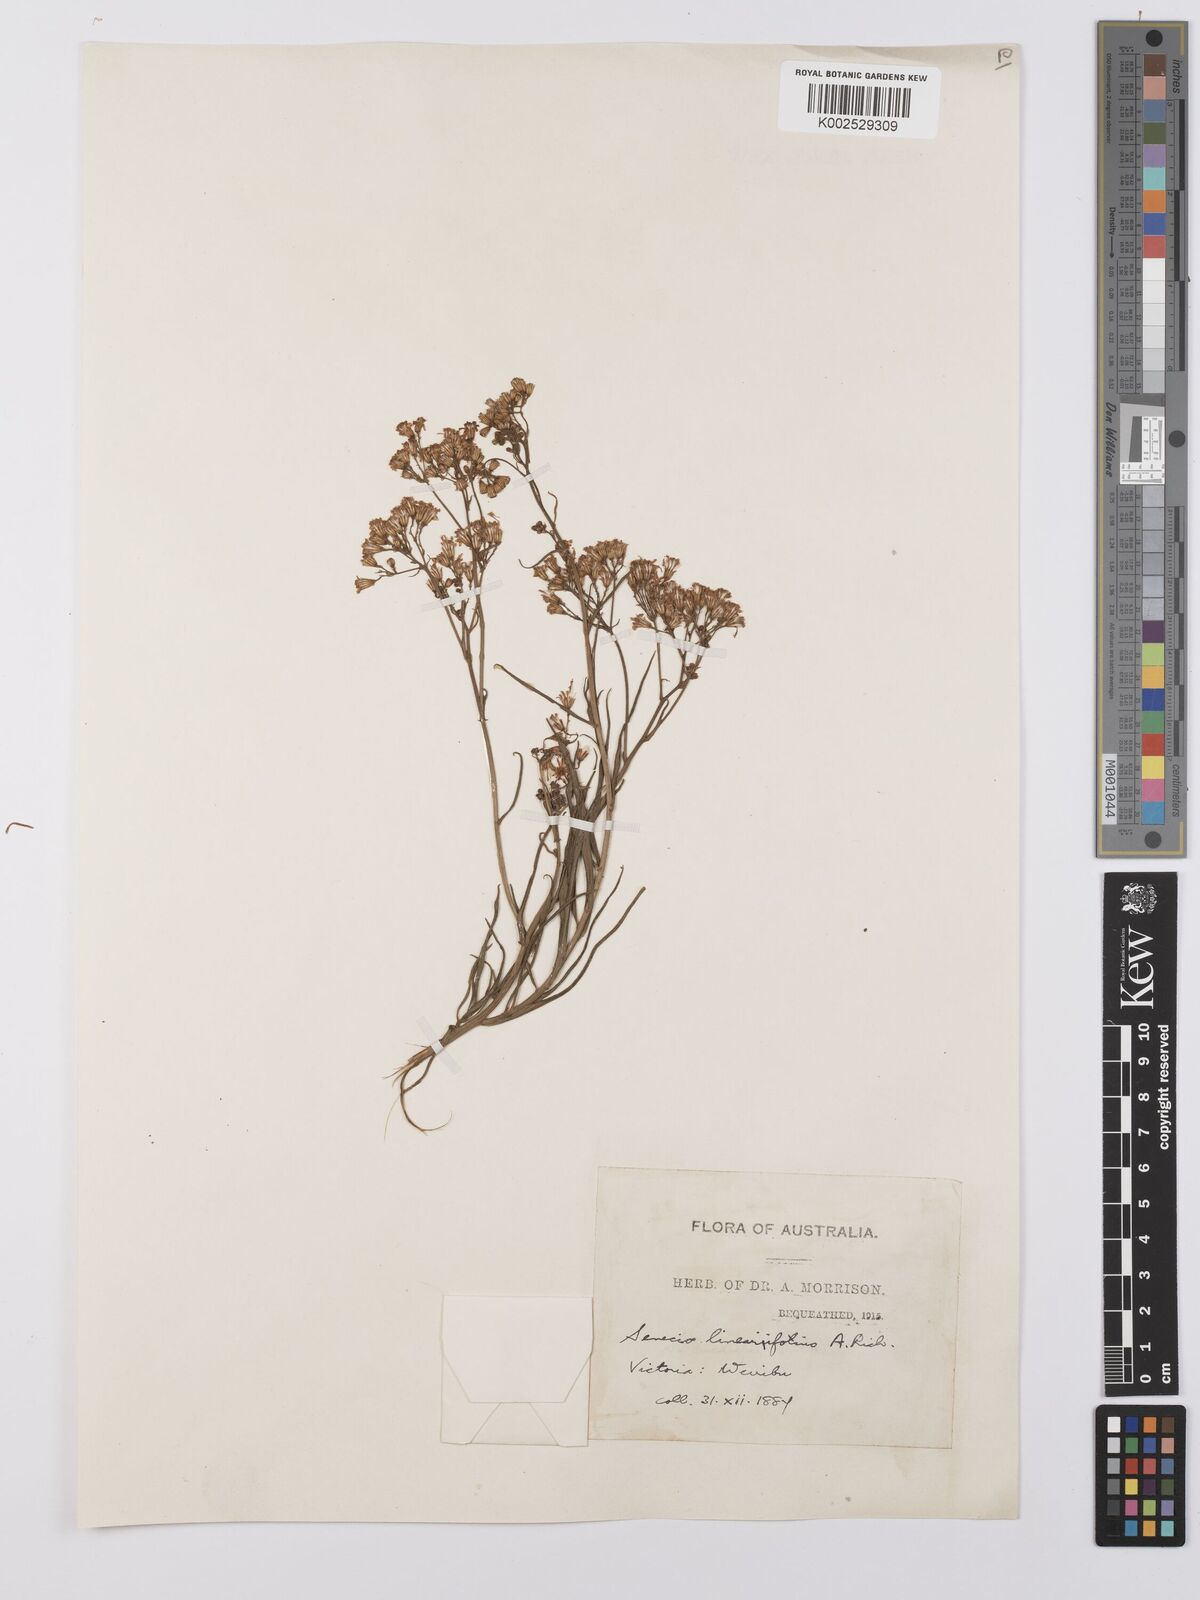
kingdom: Plantae
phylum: Tracheophyta
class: Magnoliopsida
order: Asterales
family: Asteraceae
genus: Senecio
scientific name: Senecio linearifolius
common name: Fireweed groundsel
